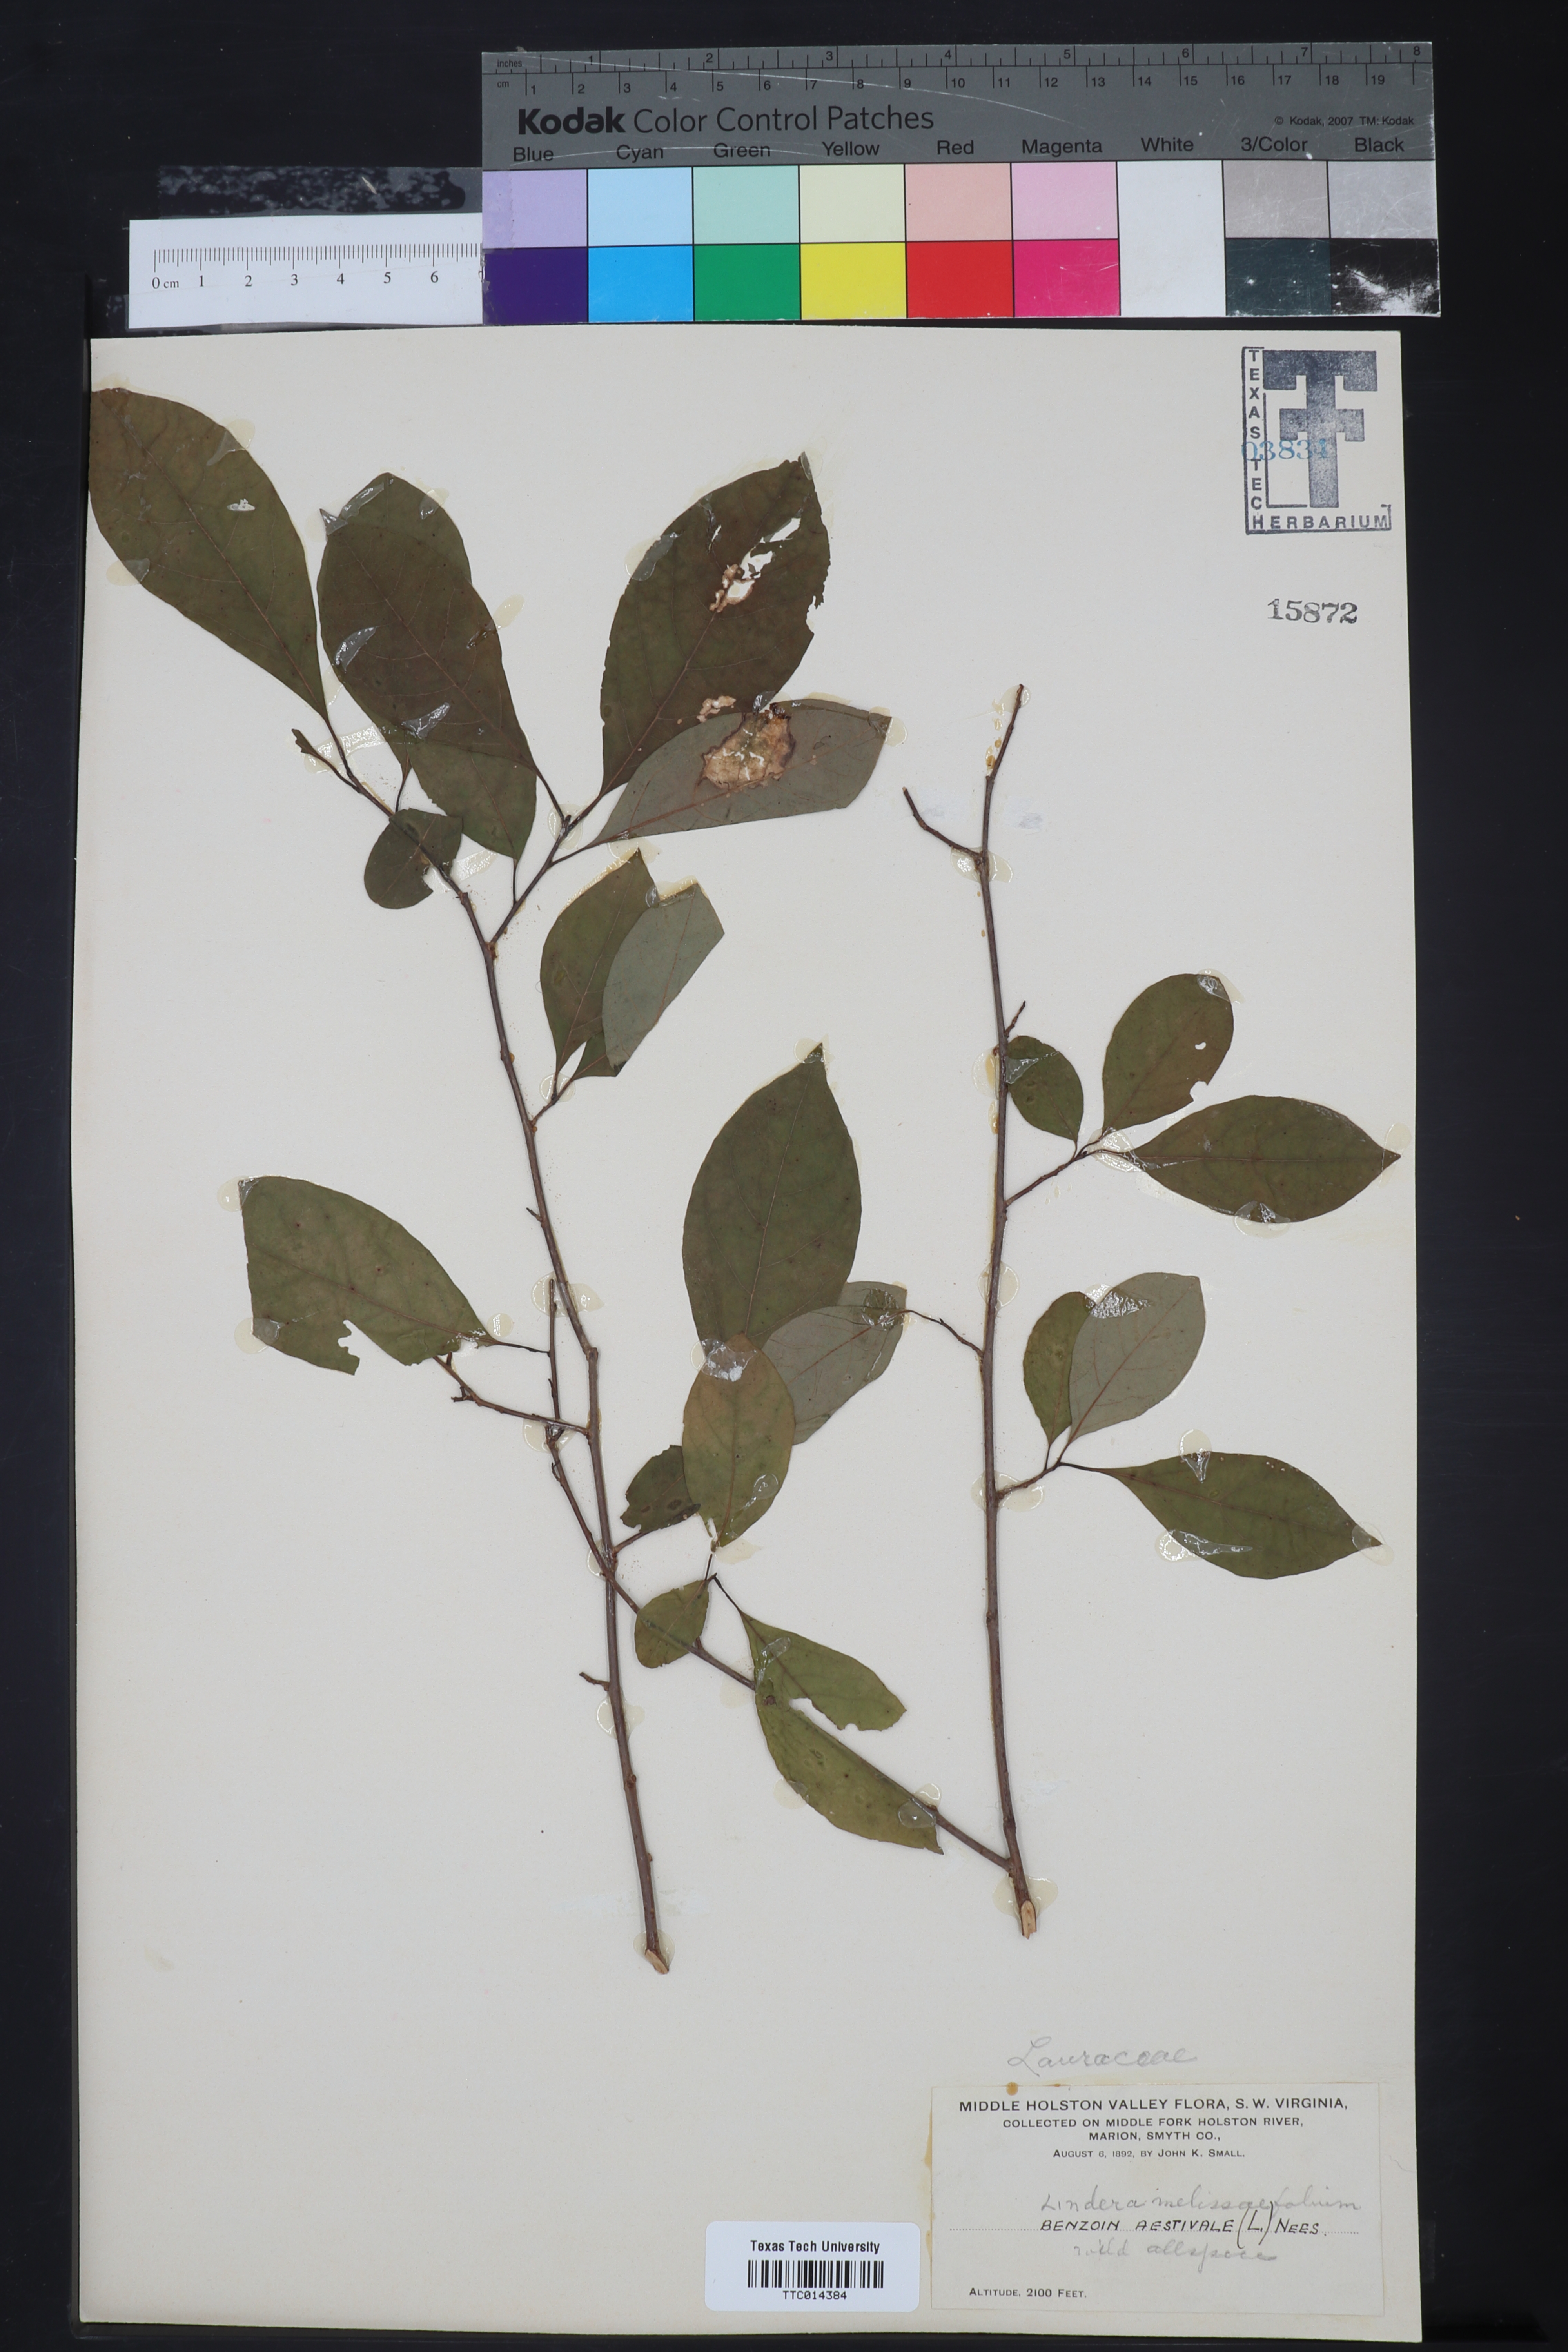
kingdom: Plantae
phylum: Tracheophyta
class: Magnoliopsida
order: Laurales
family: Lauraceae
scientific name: Lauraceae
